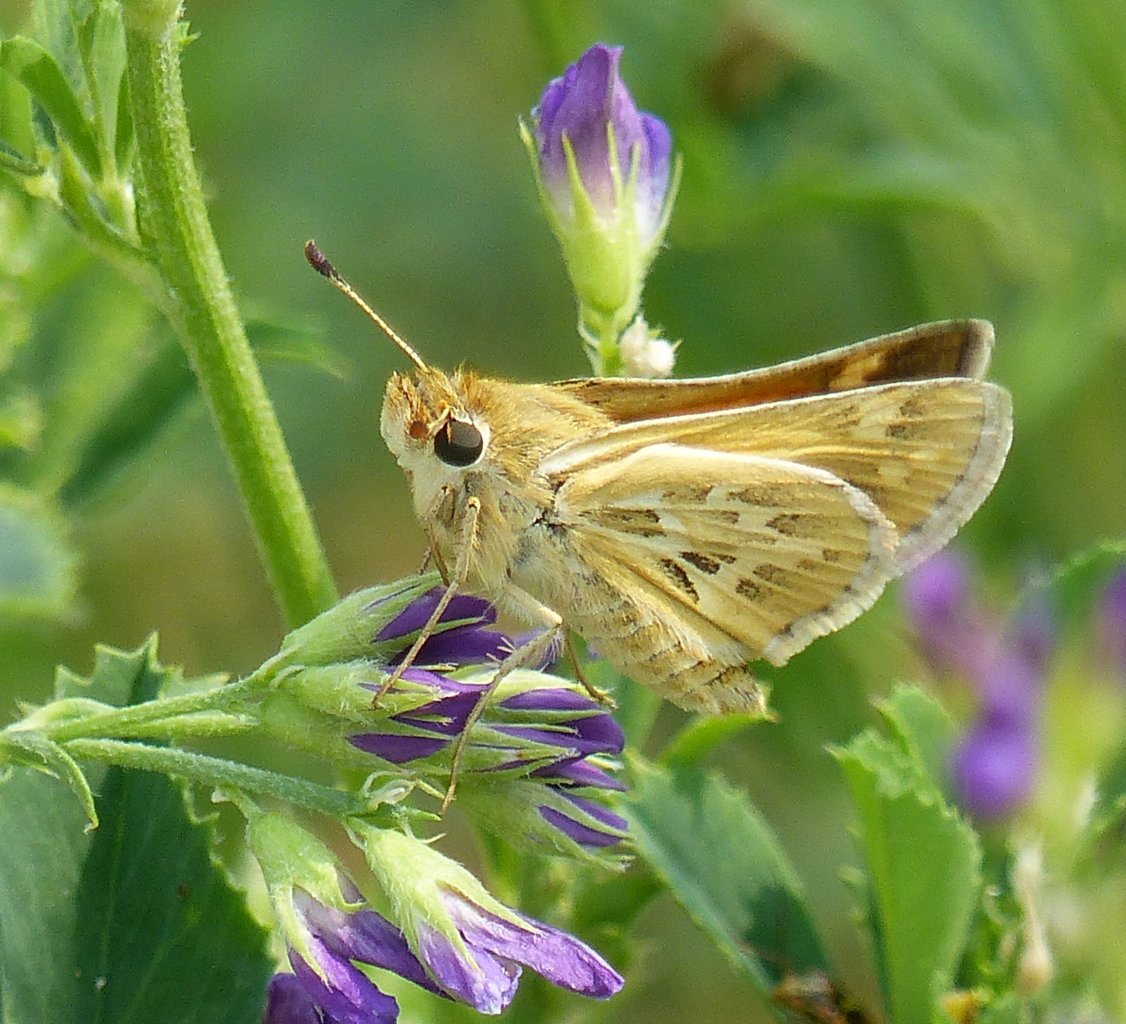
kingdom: Animalia
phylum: Arthropoda
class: Insecta
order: Lepidoptera
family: Hesperiidae
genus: Polites
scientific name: Polites sabuleti
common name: Sandhill Skipper
